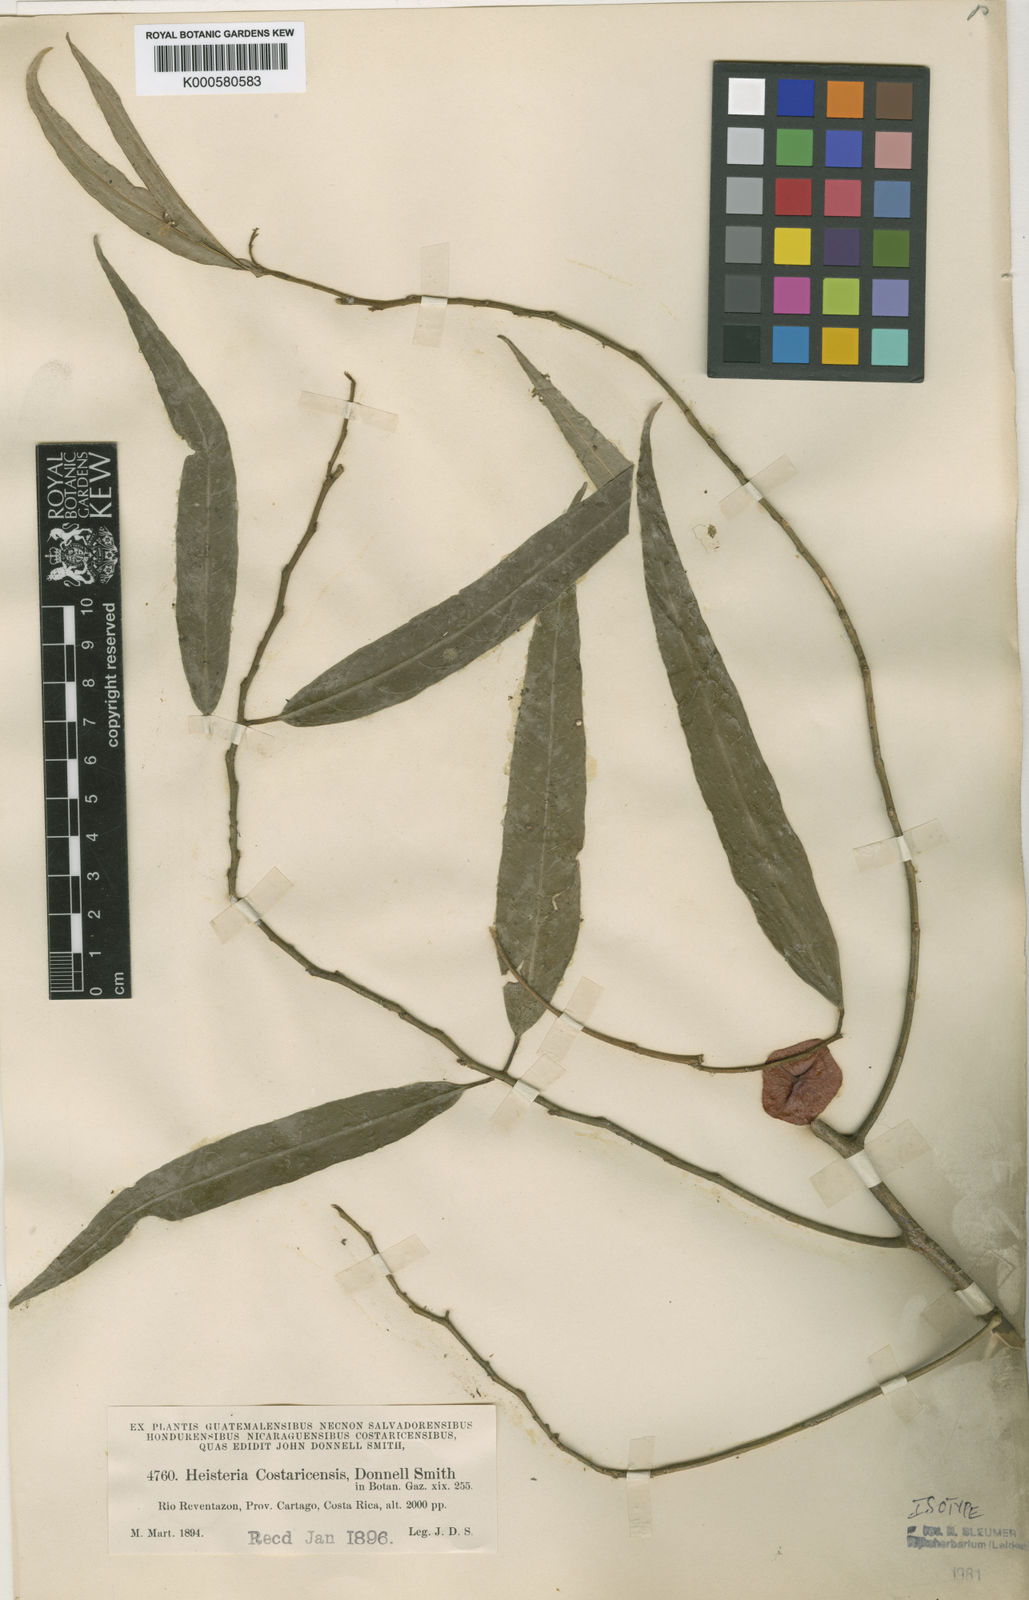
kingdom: Plantae
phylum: Tracheophyta
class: Magnoliopsida
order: Santalales
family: Erythropalaceae
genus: Heisteria
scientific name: Heisteria macrophylla
